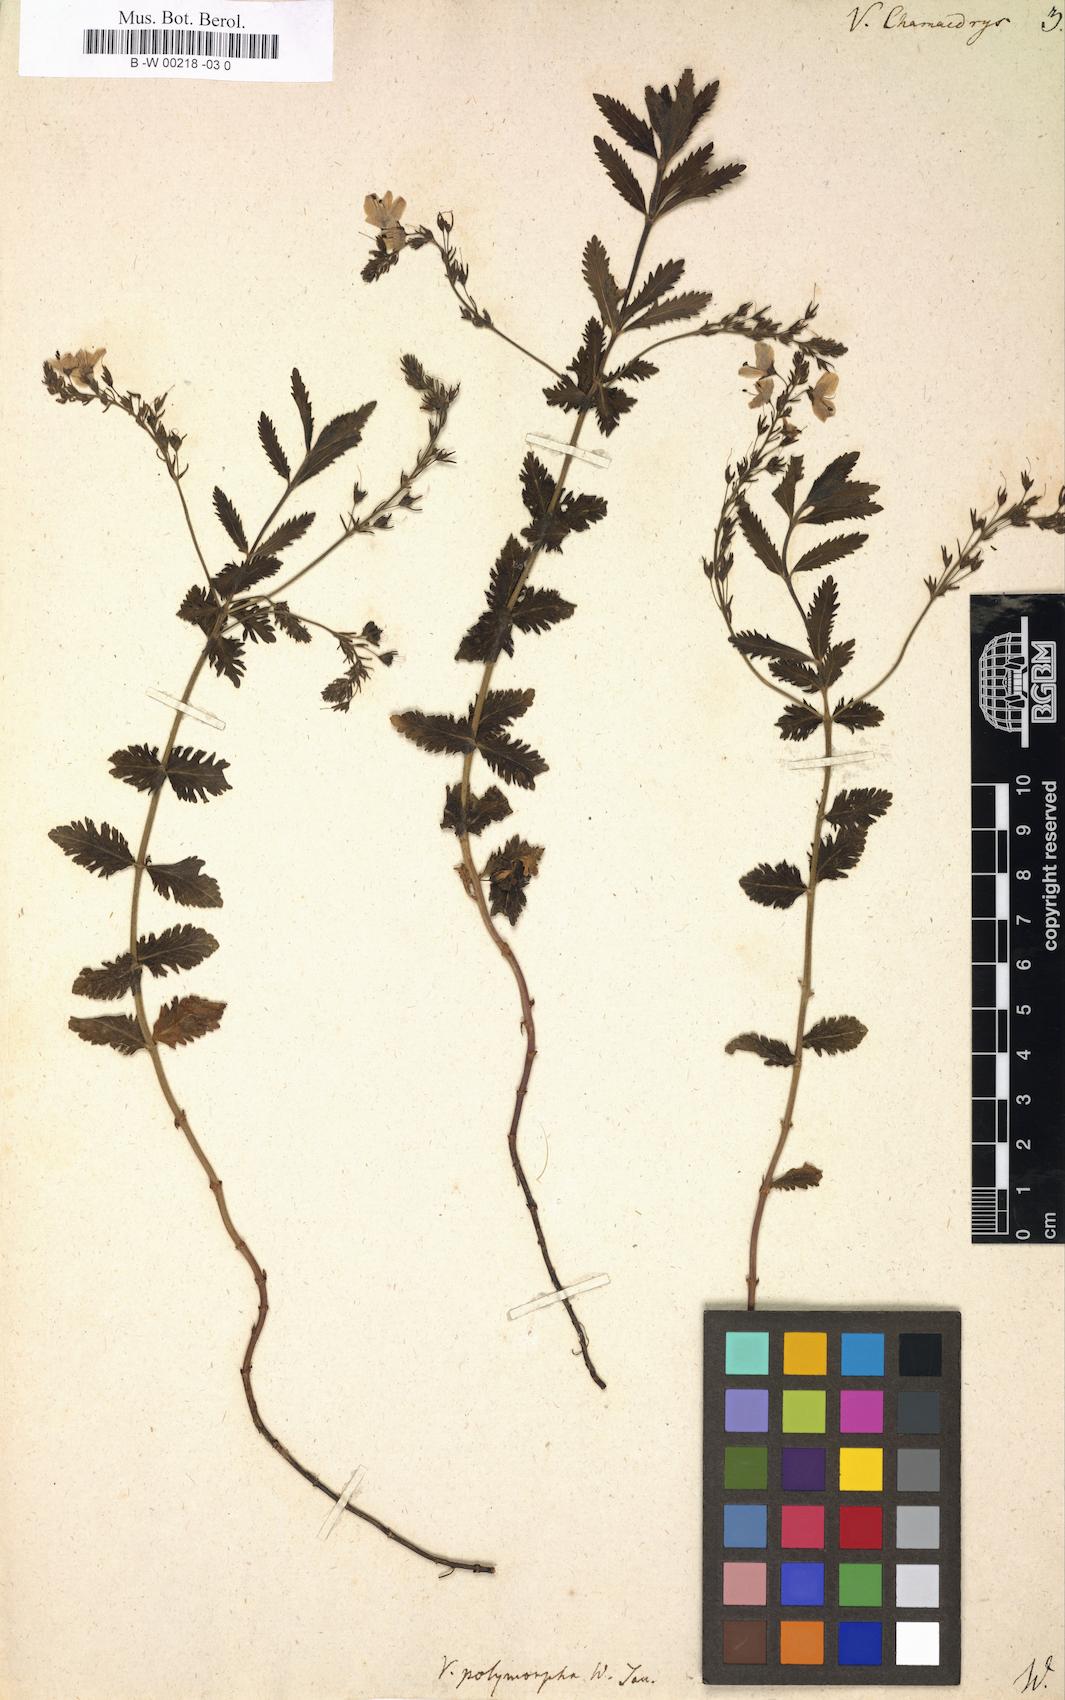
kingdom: Plantae
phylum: Tracheophyta
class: Magnoliopsida
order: Lamiales
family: Plantaginaceae
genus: Veronica
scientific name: Veronica chamaedrys
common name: Germander speedwell
